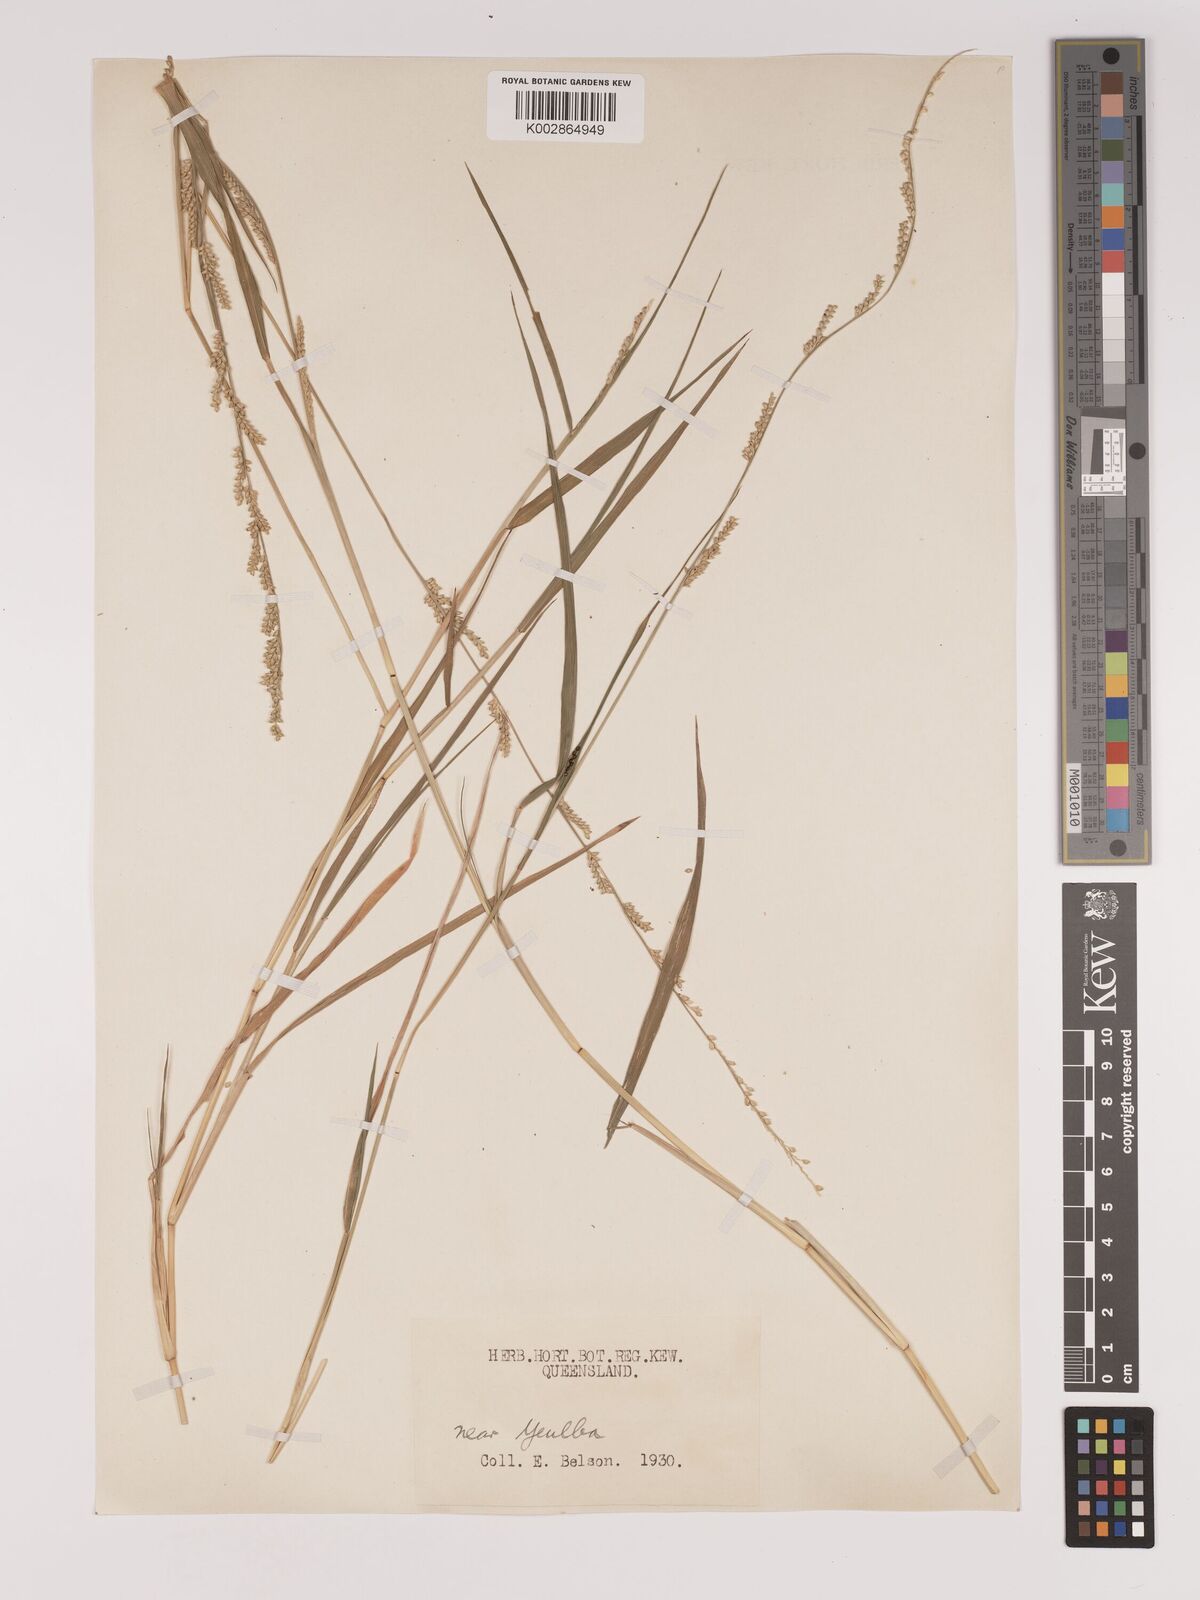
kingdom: Plantae
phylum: Tracheophyta
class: Liliopsida
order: Poales
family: Poaceae
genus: Setaria
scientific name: Setaria
